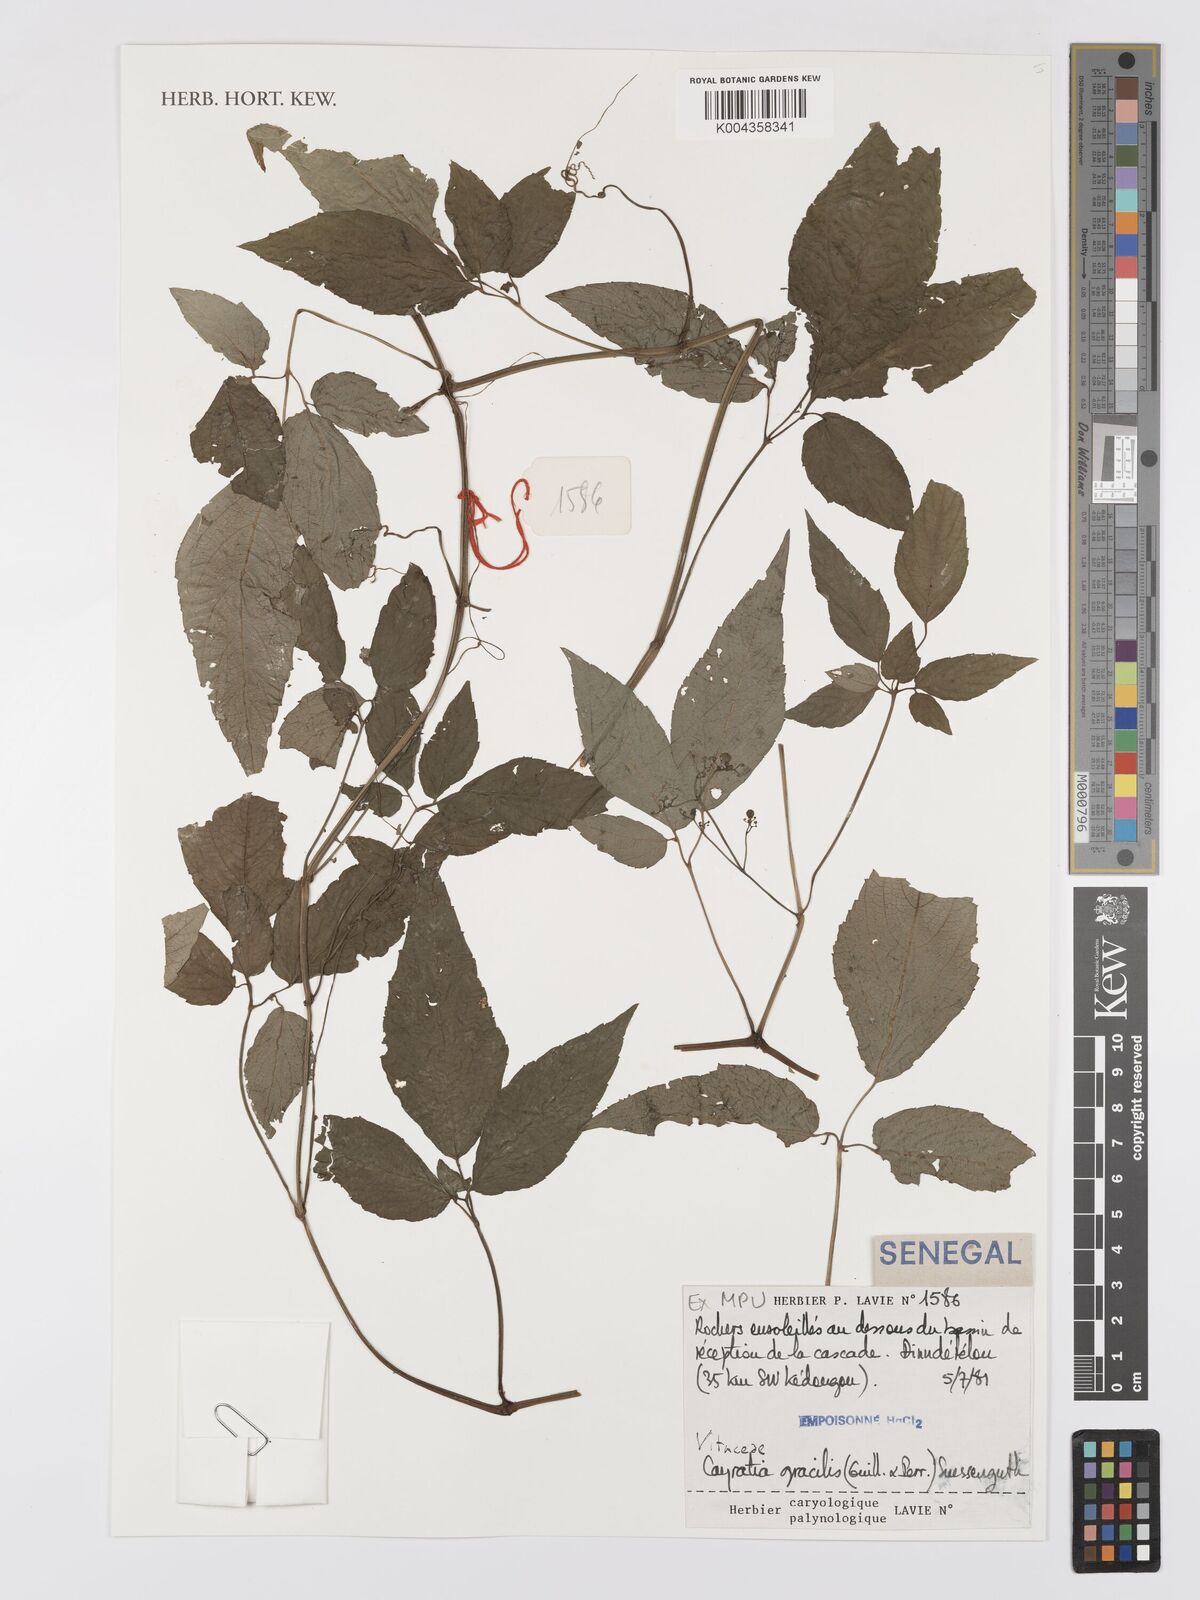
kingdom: Plantae
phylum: Tracheophyta
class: Magnoliopsida
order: Vitales
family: Vitaceae
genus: Afrocayratia
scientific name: Afrocayratia gracilis
